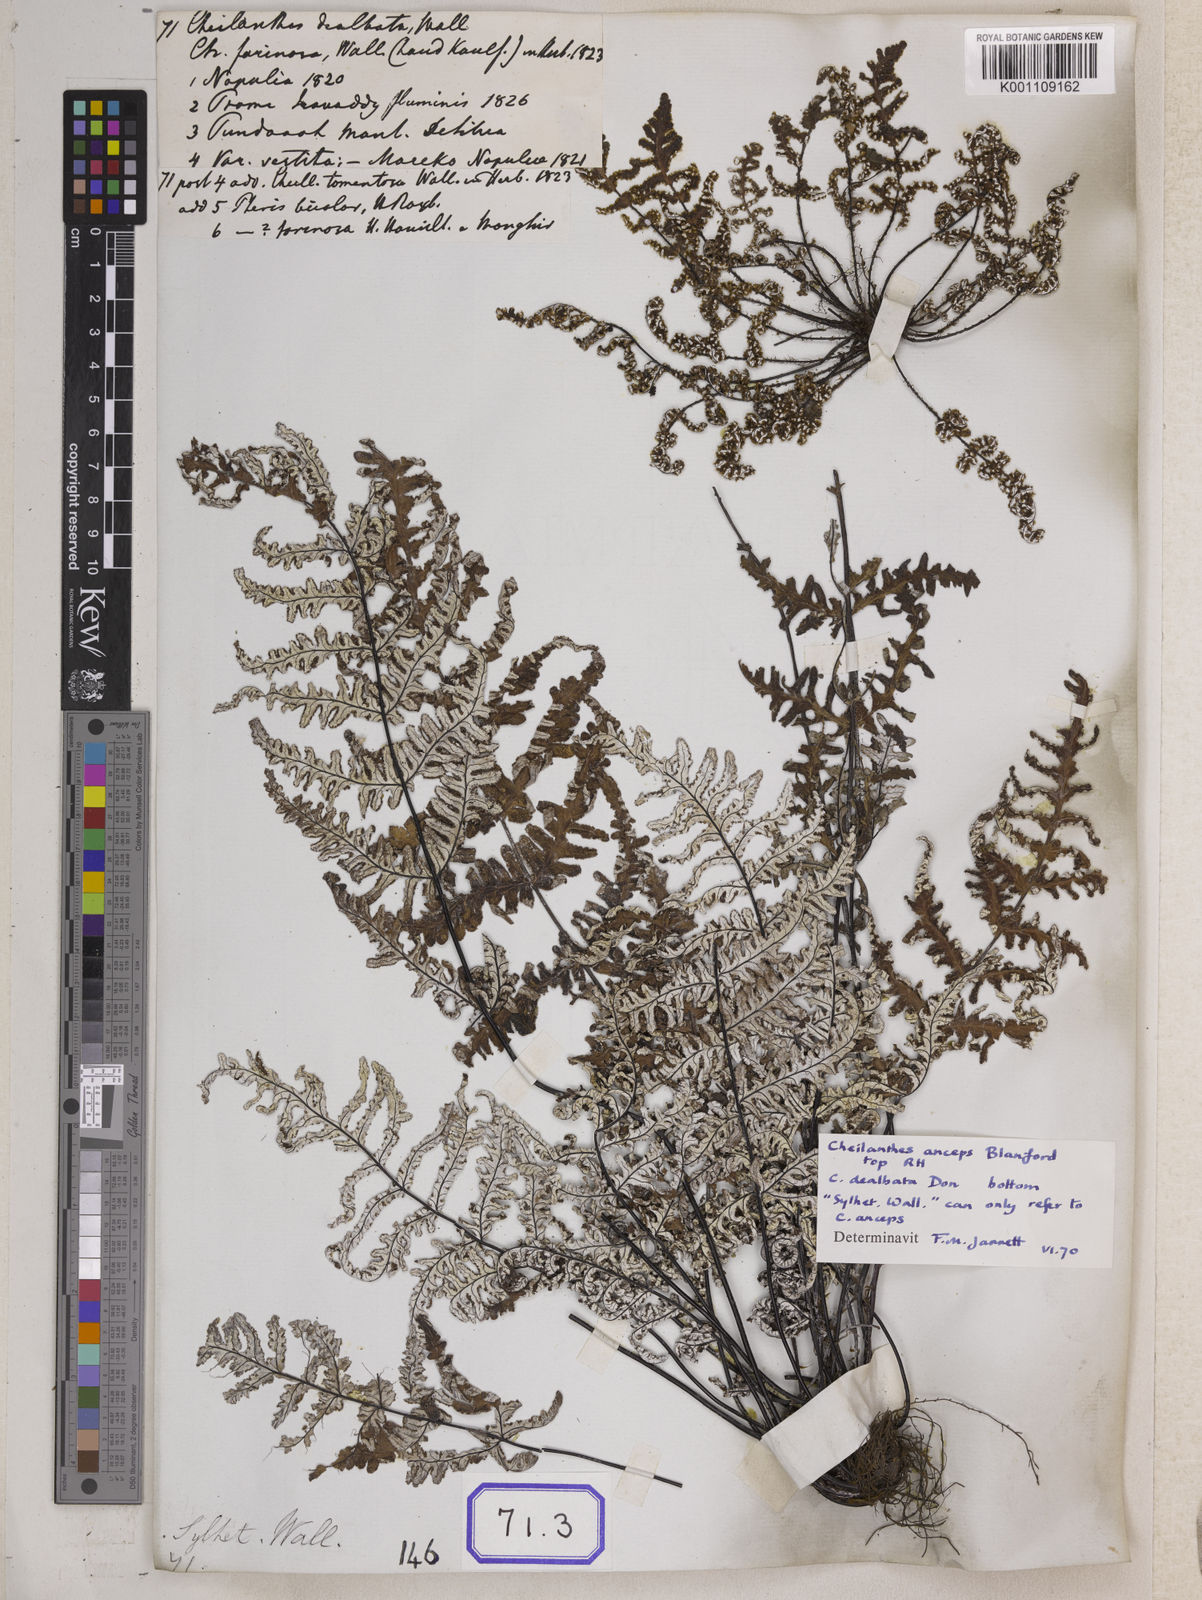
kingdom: Plantae
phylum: Tracheophyta
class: Polypodiopsida
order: Polypodiales
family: Pteridaceae
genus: Argyrochosma
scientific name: Argyrochosma dealbata
